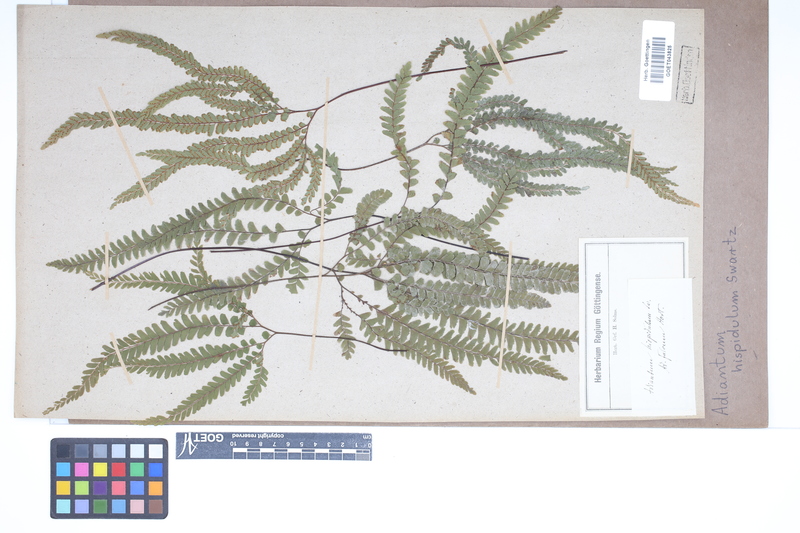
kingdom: Plantae
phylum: Tracheophyta
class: Polypodiopsida
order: Polypodiales
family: Pteridaceae
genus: Adiantum
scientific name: Adiantum hispidulum
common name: Rough maidenhair
